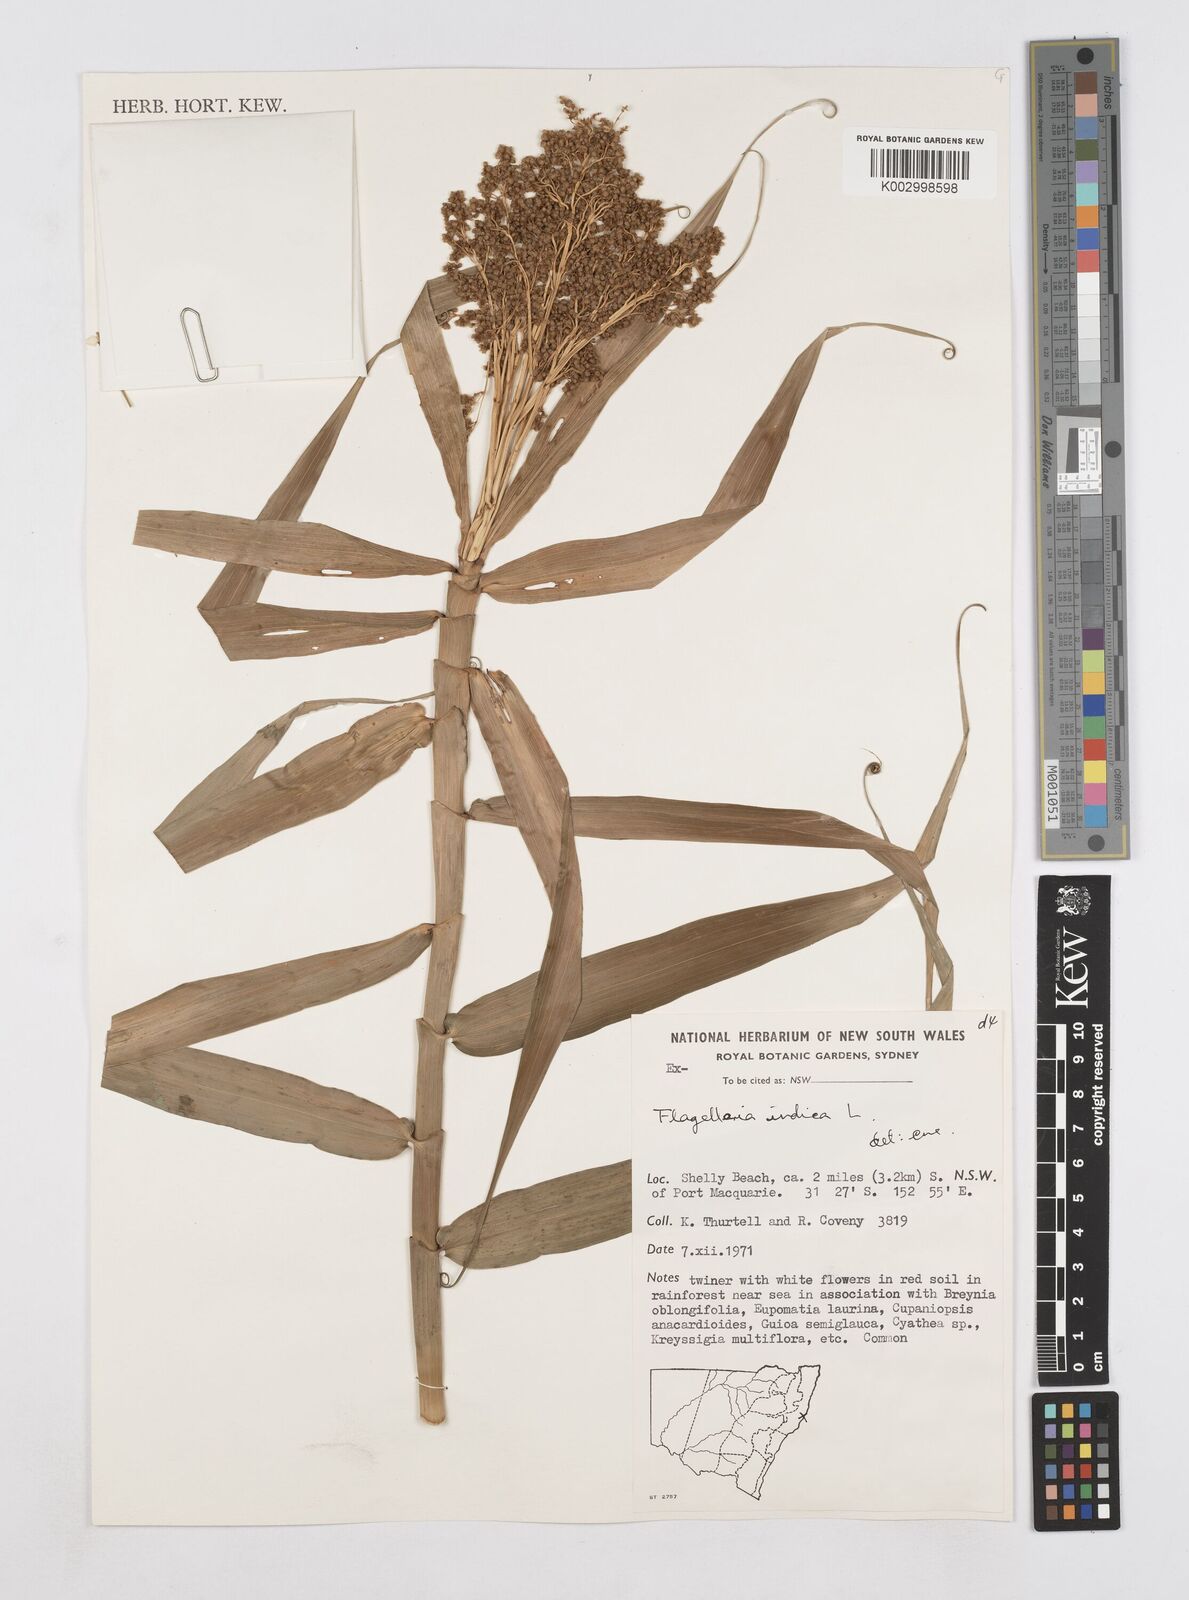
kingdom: Plantae
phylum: Tracheophyta
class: Liliopsida
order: Poales
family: Flagellariaceae
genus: Flagellaria
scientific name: Flagellaria indica
